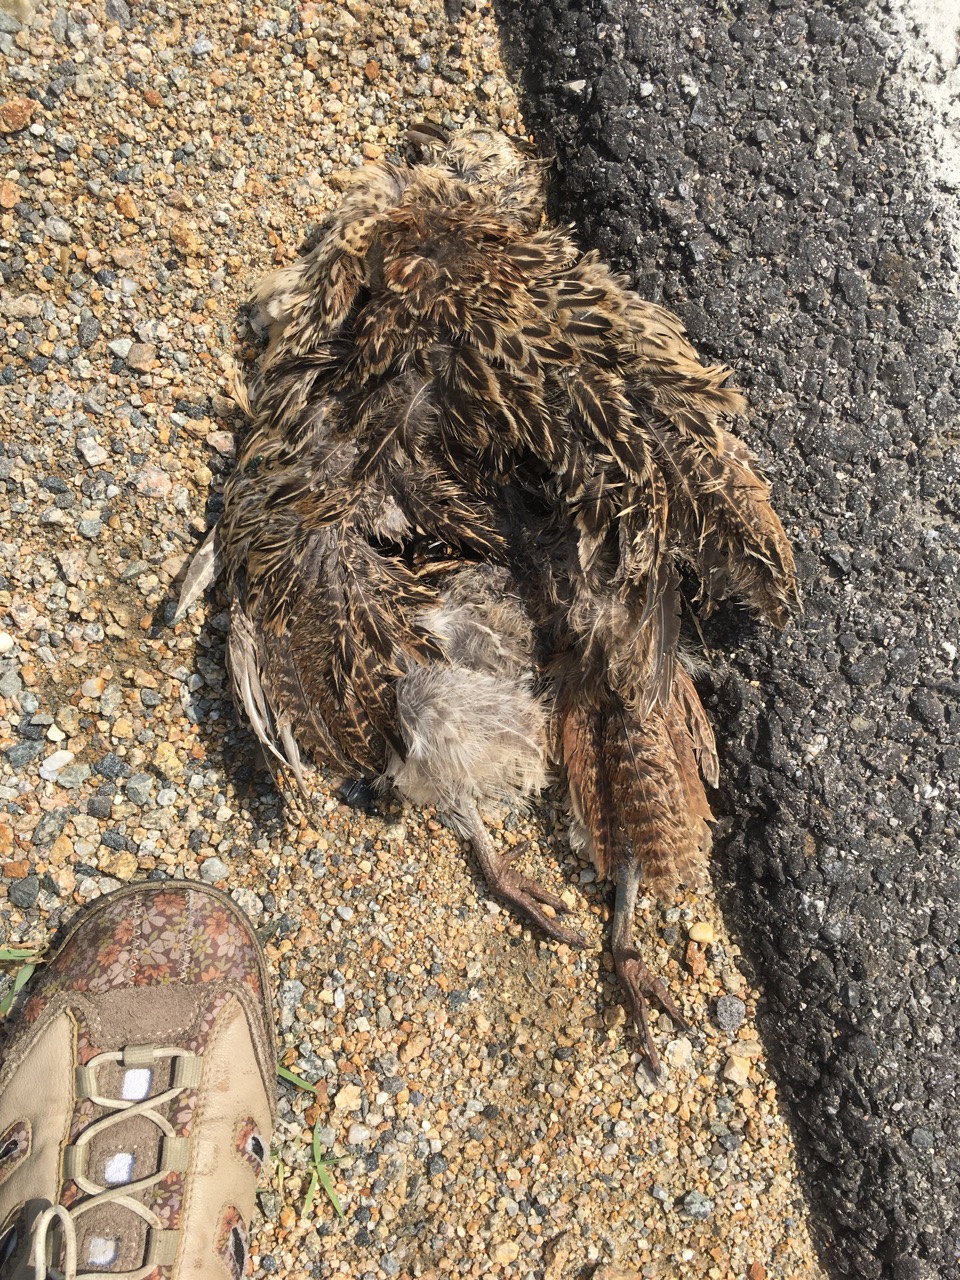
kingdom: Animalia
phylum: Chordata
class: Aves
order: Galliformes
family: Phasianidae
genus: Phasianus
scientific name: Phasianus colchicus
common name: Common pheasant
